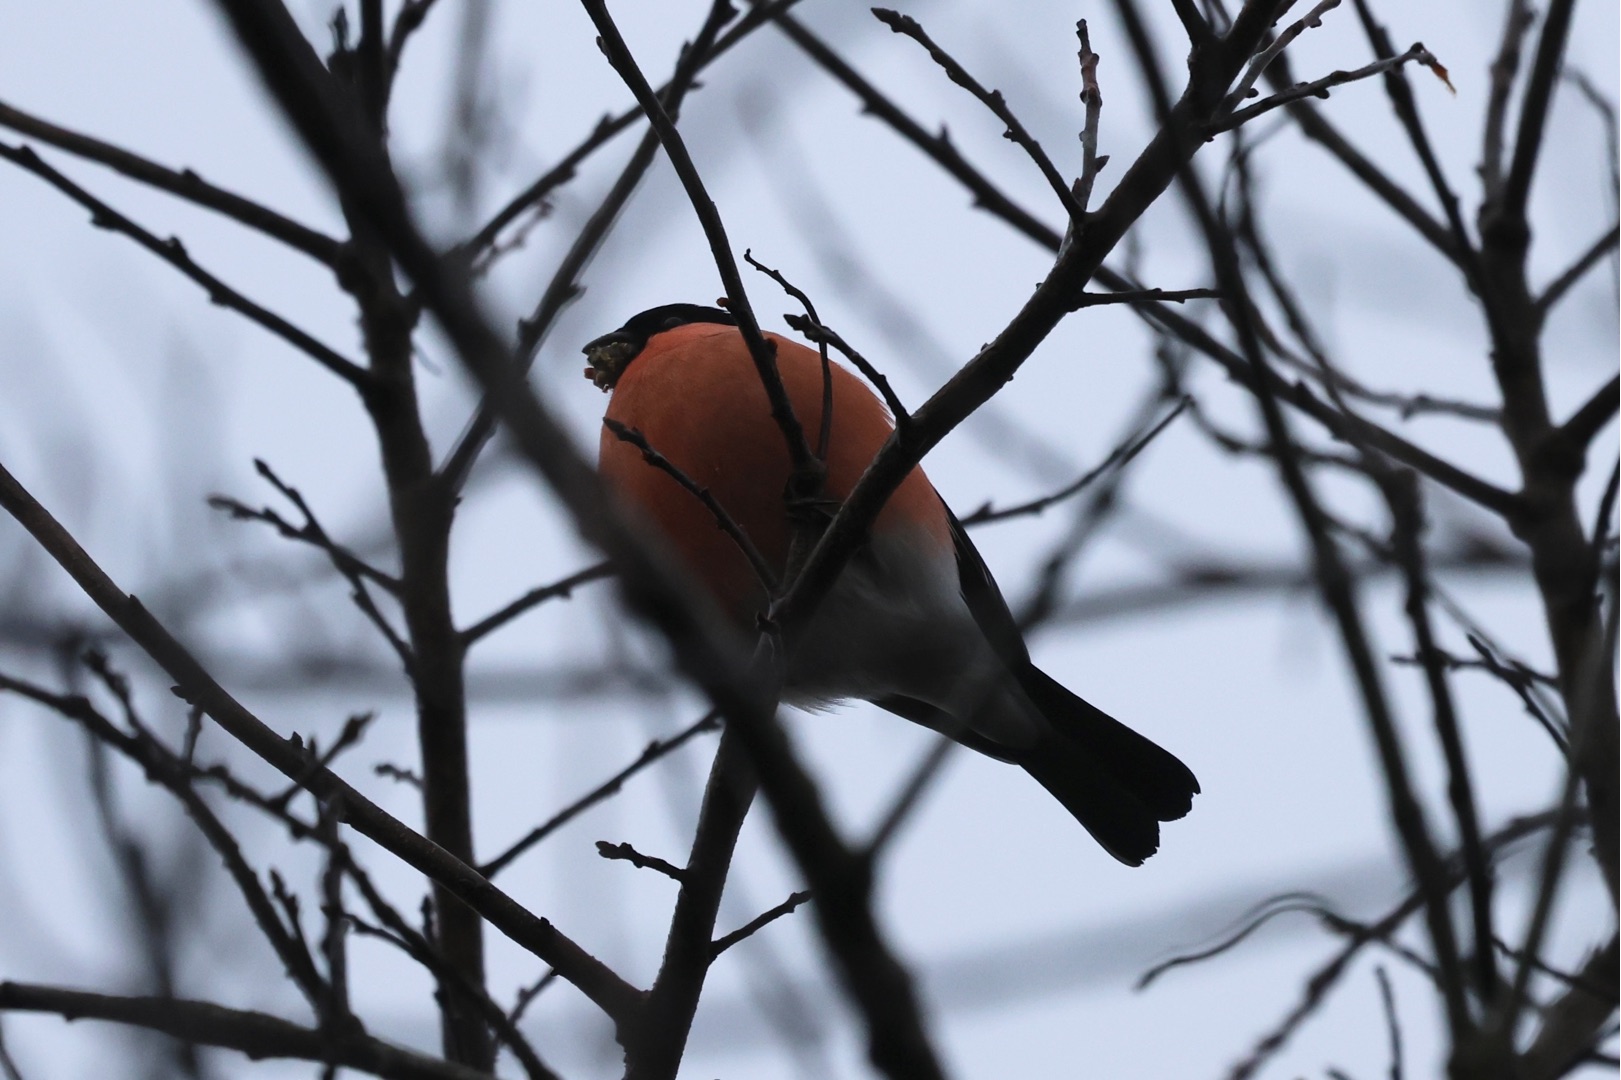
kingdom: Animalia
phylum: Chordata
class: Aves
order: Passeriformes
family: Fringillidae
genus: Pyrrhula
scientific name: Pyrrhula pyrrhula
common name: Dompap
